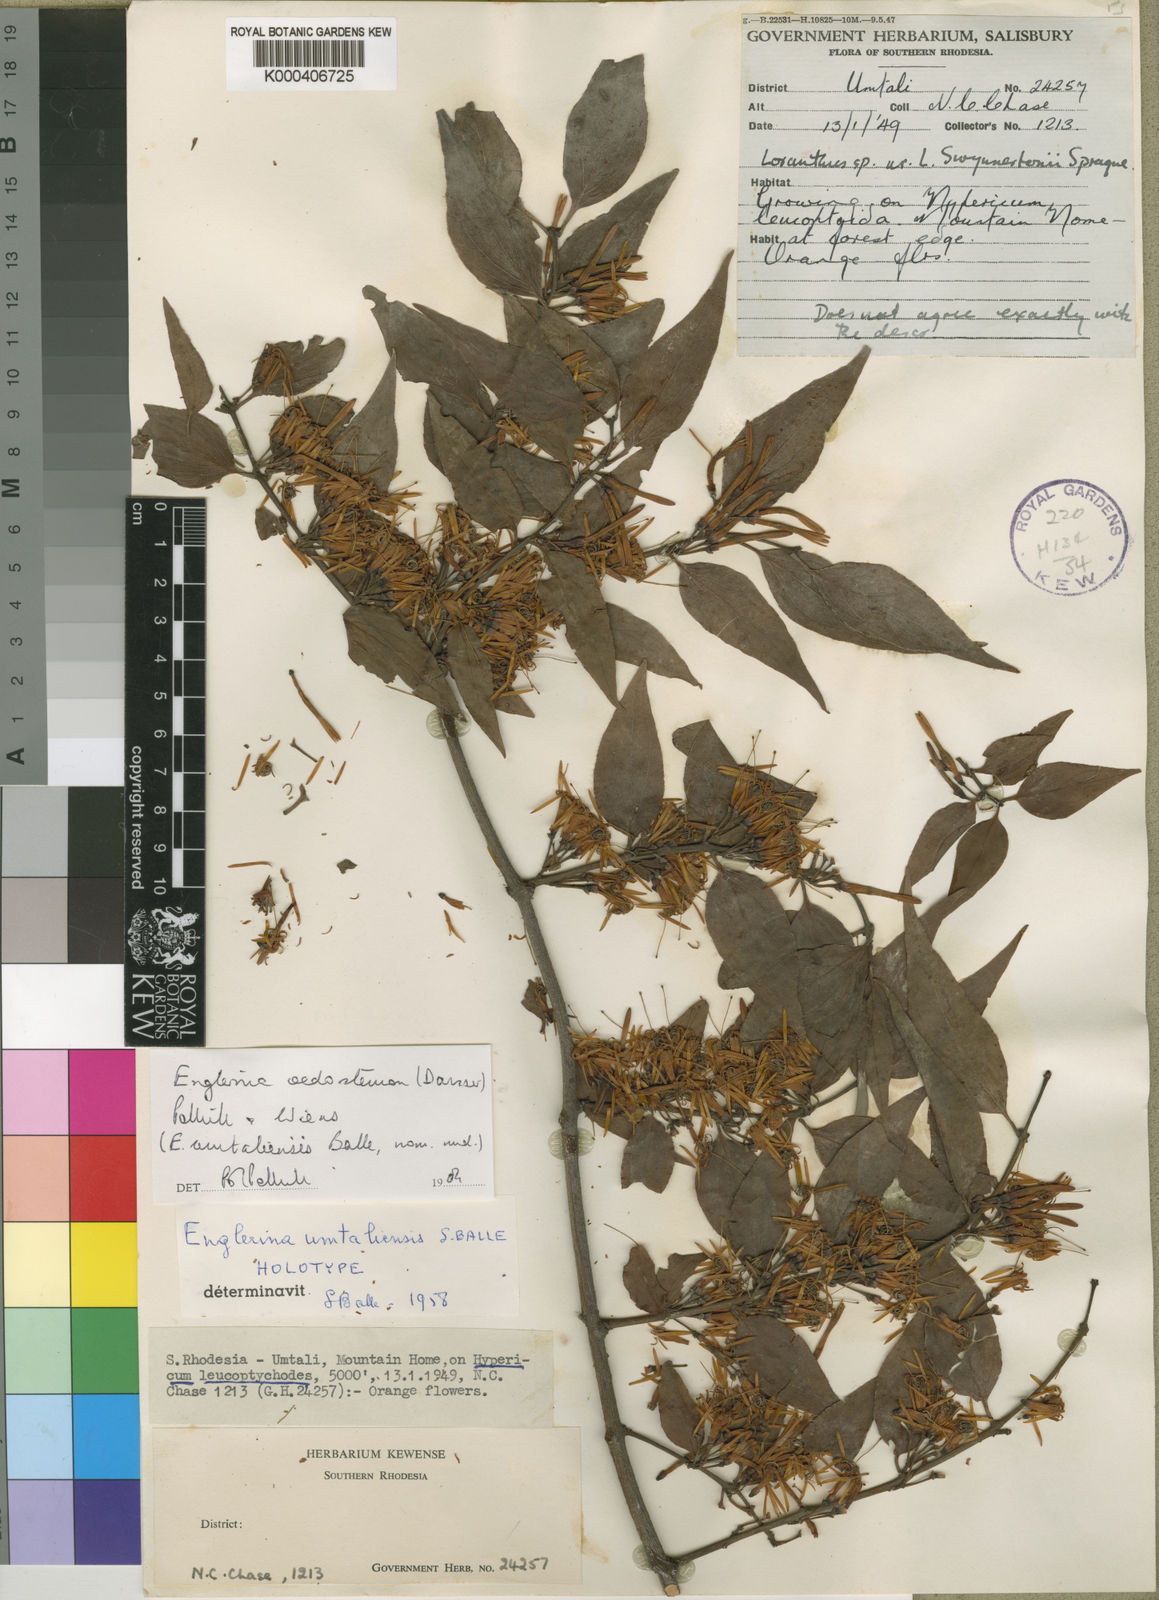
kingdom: Plantae
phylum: Tracheophyta
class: Magnoliopsida
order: Santalales
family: Loranthaceae
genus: Englerina
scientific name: Englerina oedostemon
